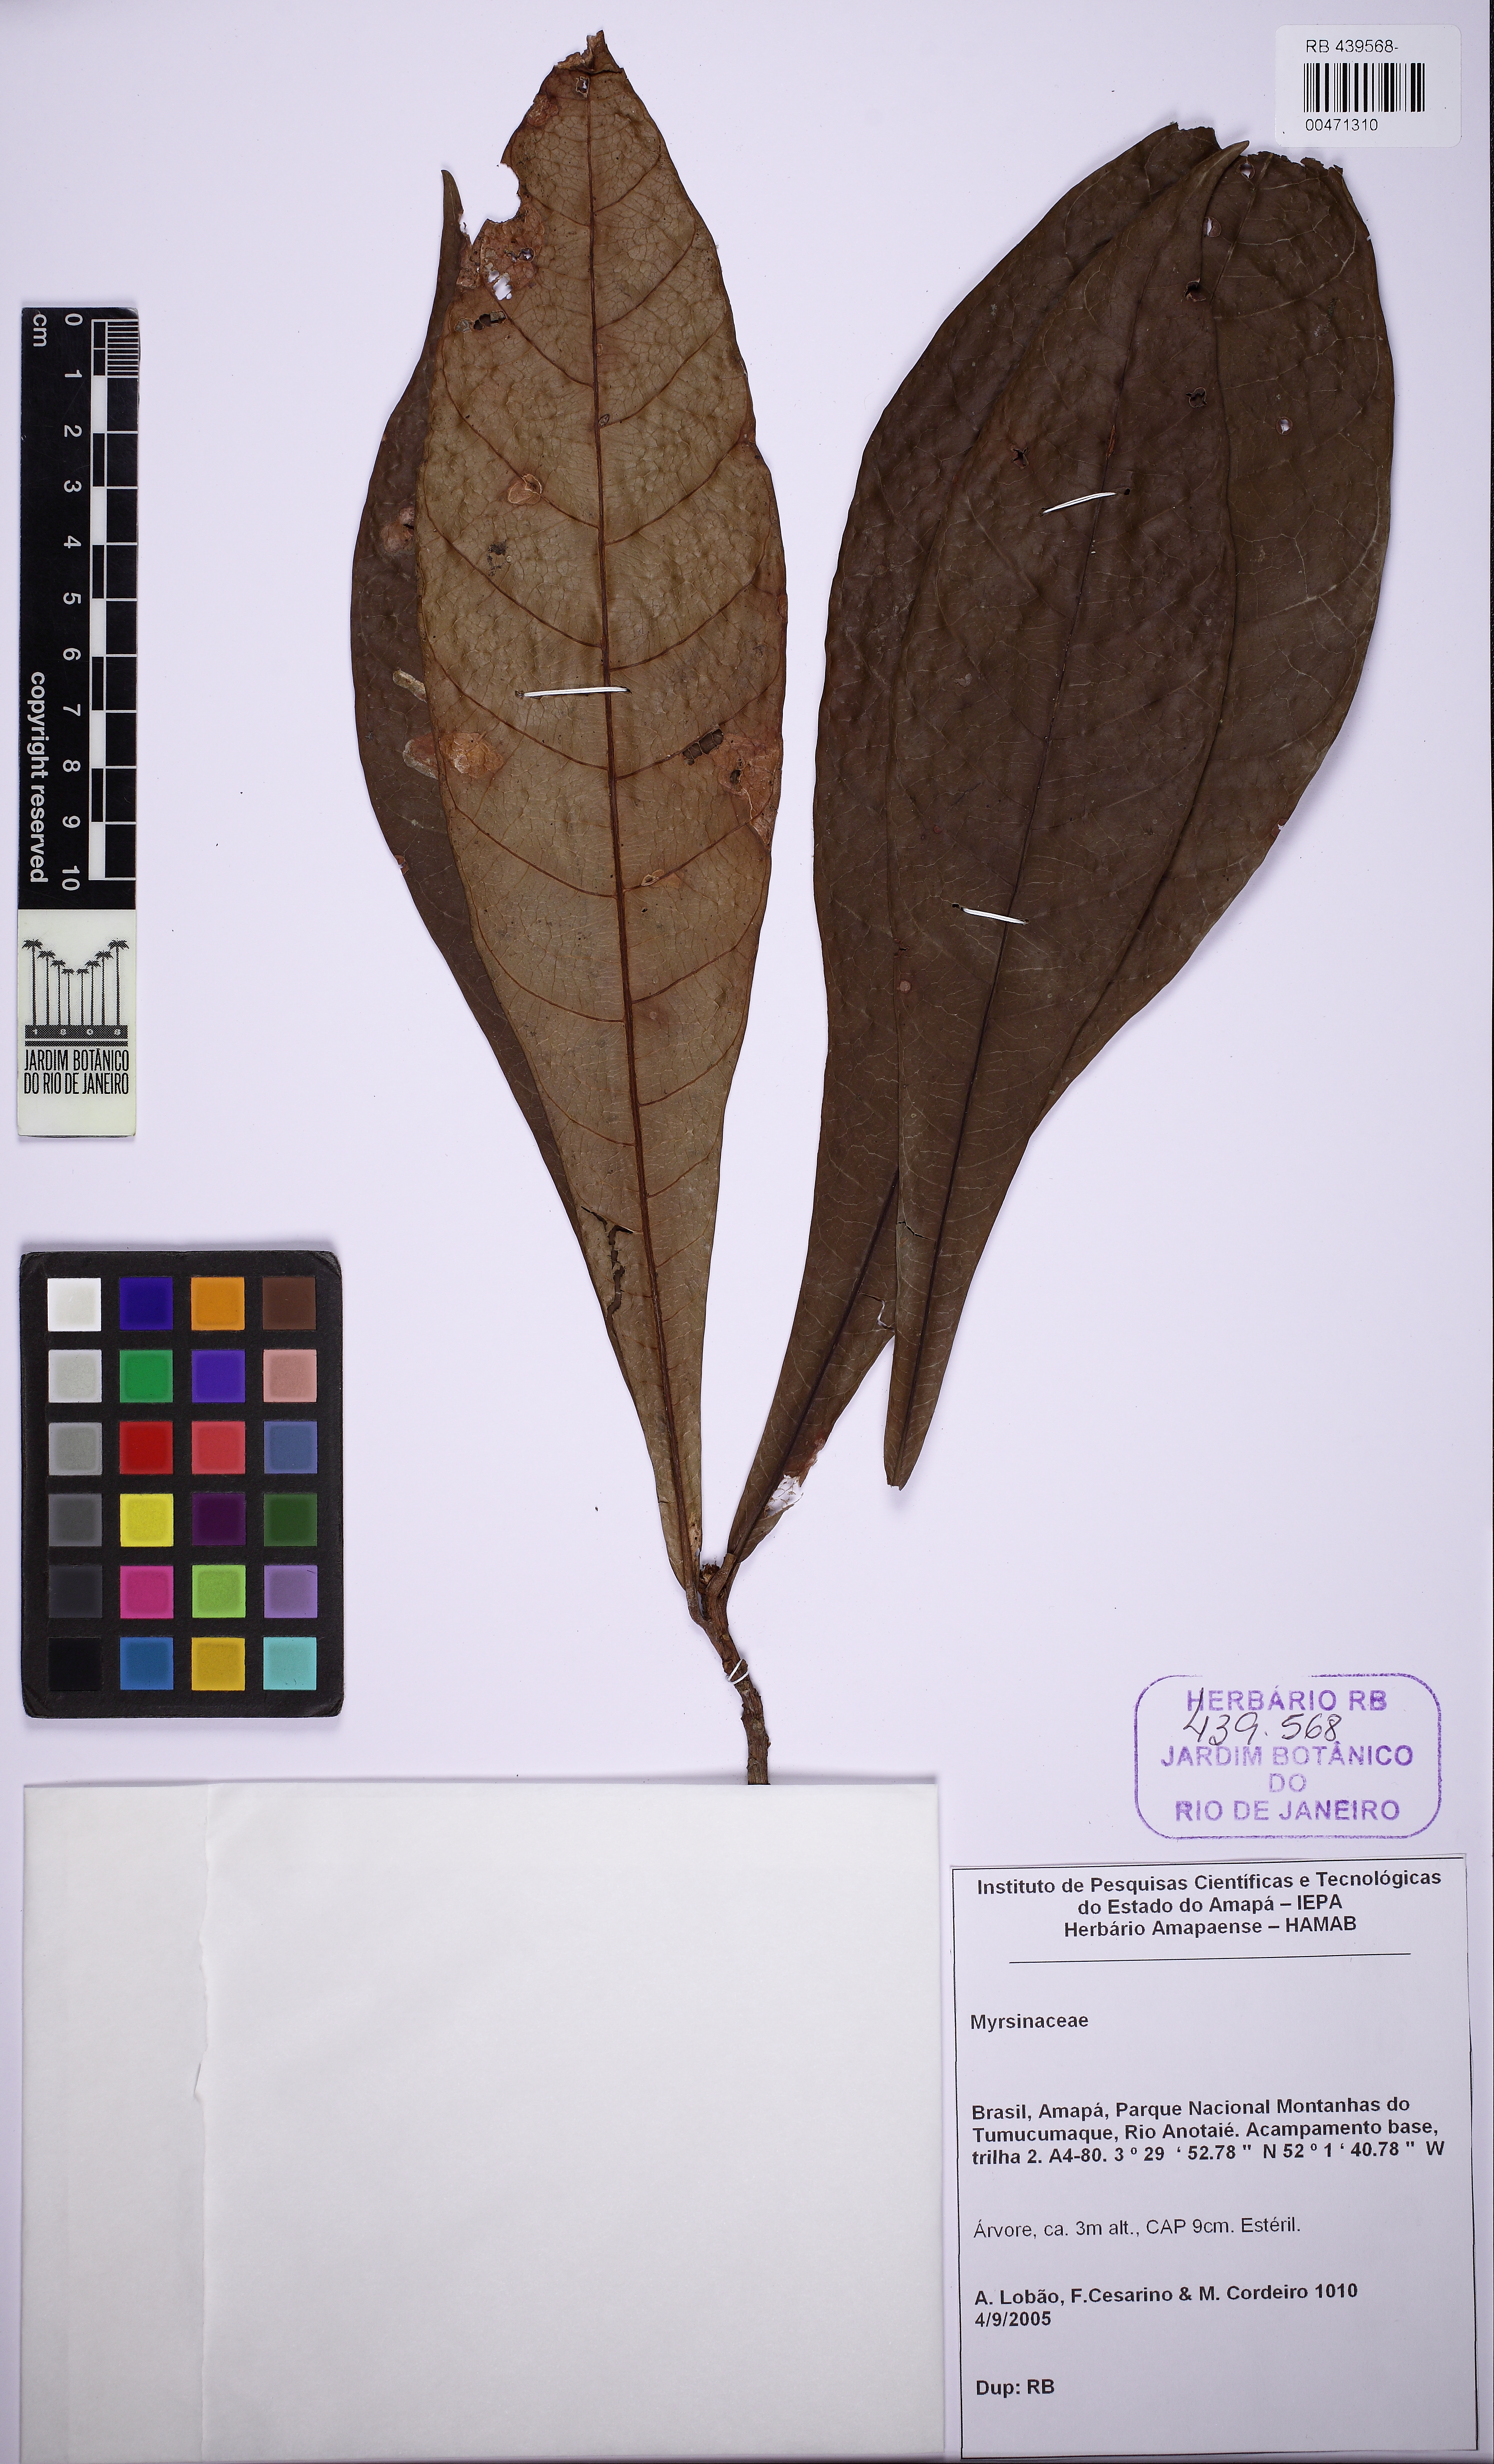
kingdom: Plantae
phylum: Tracheophyta
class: Magnoliopsida
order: Ericales
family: Primulaceae
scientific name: Primulaceae
